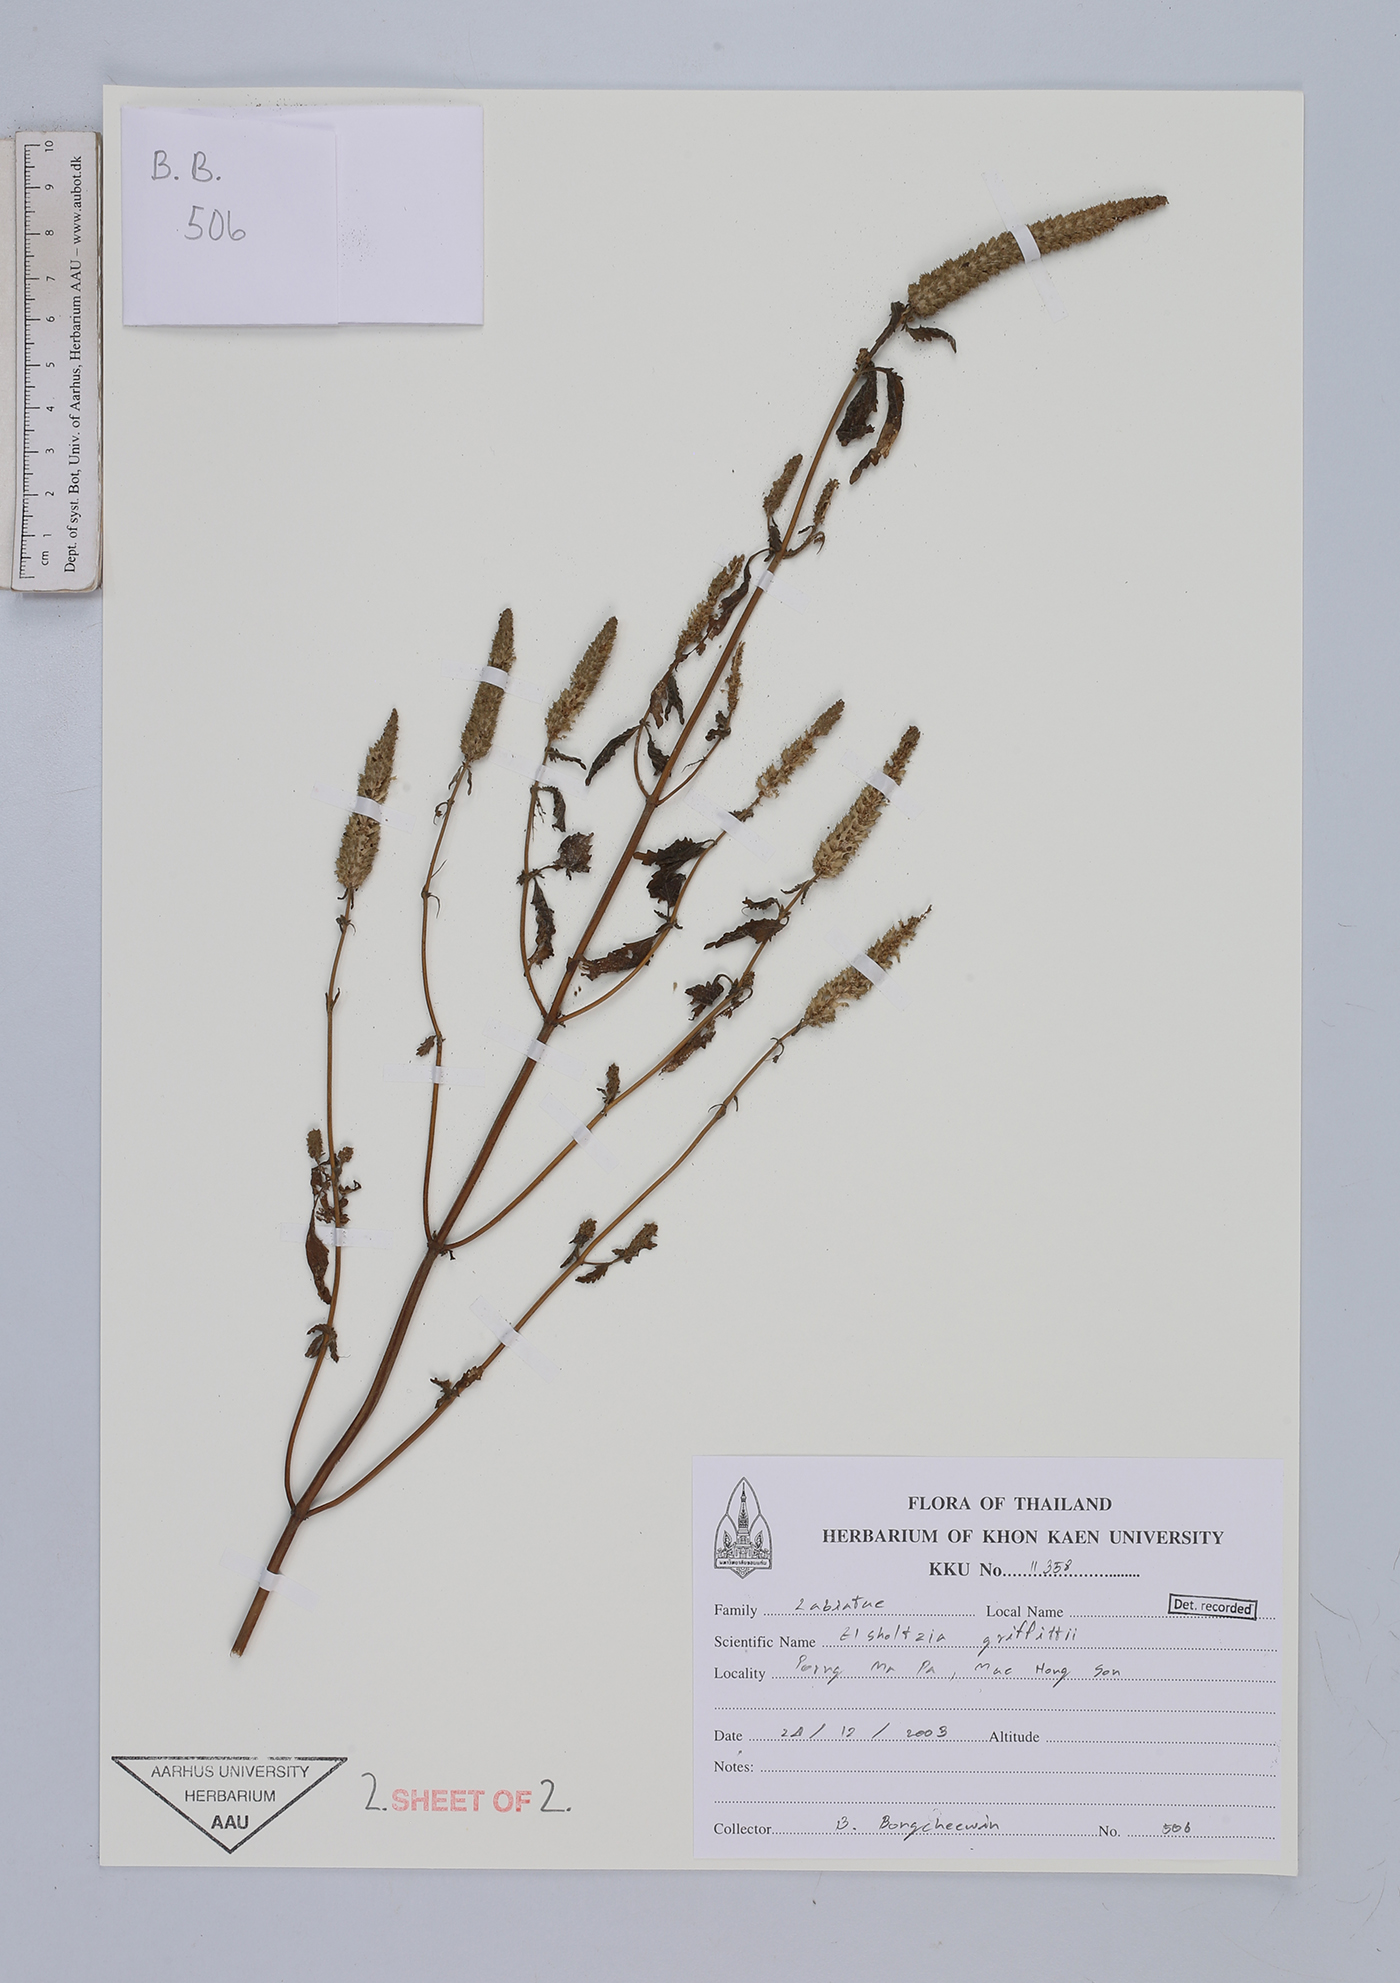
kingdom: Plantae
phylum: Tracheophyta
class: Magnoliopsida
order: Lamiales
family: Lamiaceae
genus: Elsholtzia
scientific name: Elsholtzia griffithii
